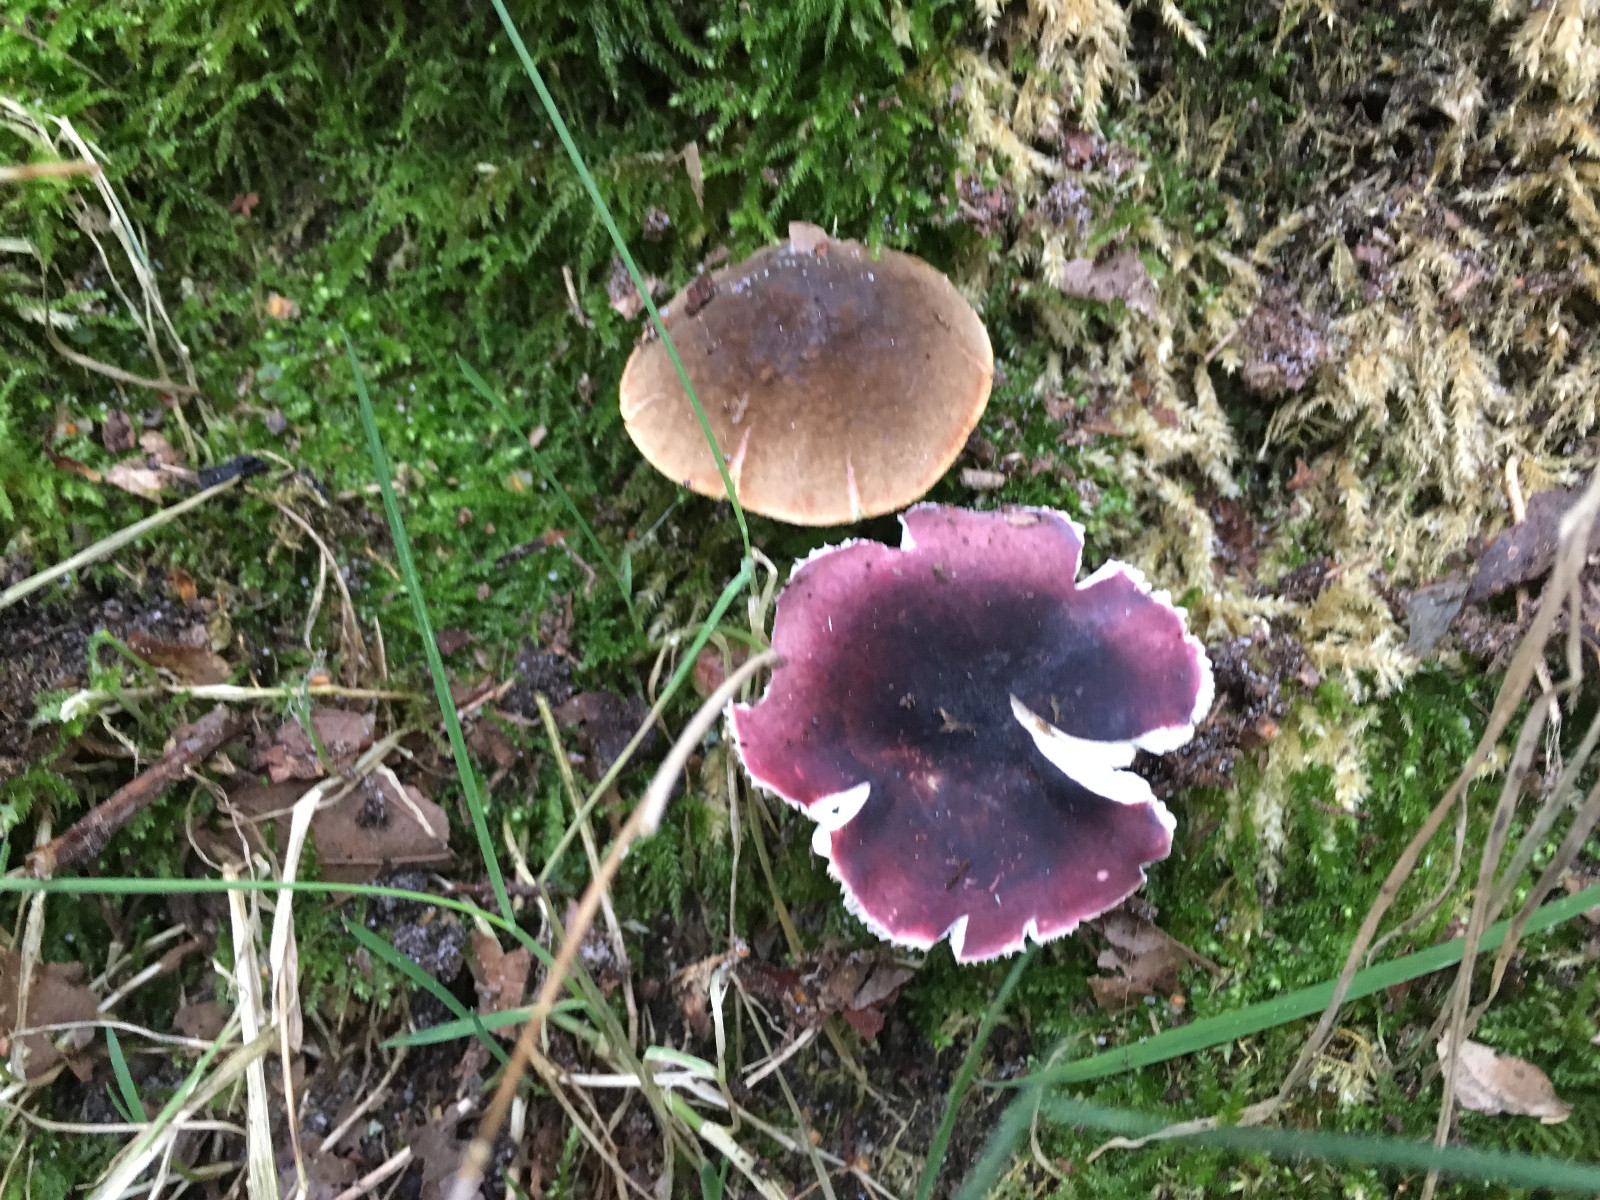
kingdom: Fungi
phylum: Basidiomycota
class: Agaricomycetes
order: Russulales
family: Russulaceae
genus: Russula
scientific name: Russula
